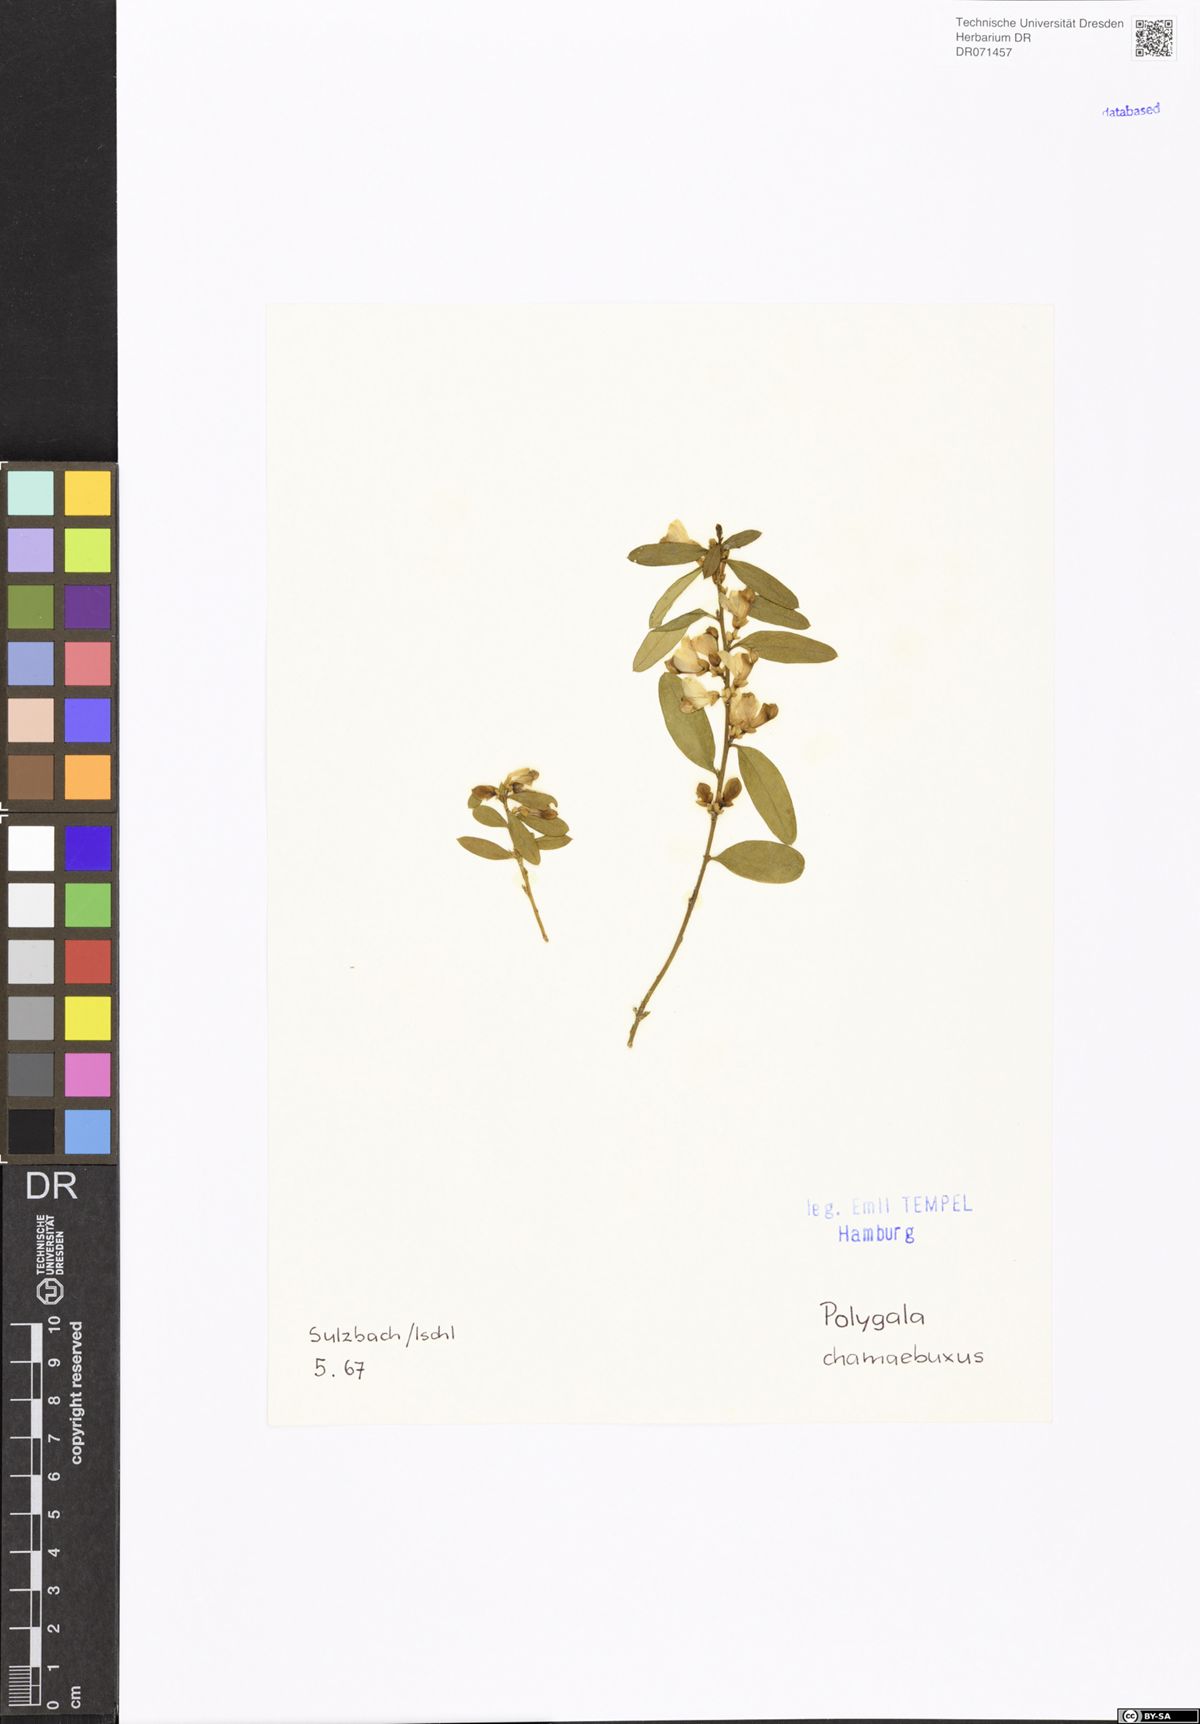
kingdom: Plantae
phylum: Tracheophyta
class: Magnoliopsida
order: Fabales
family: Polygalaceae
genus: Polygaloides
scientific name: Polygaloides chamaebuxus
